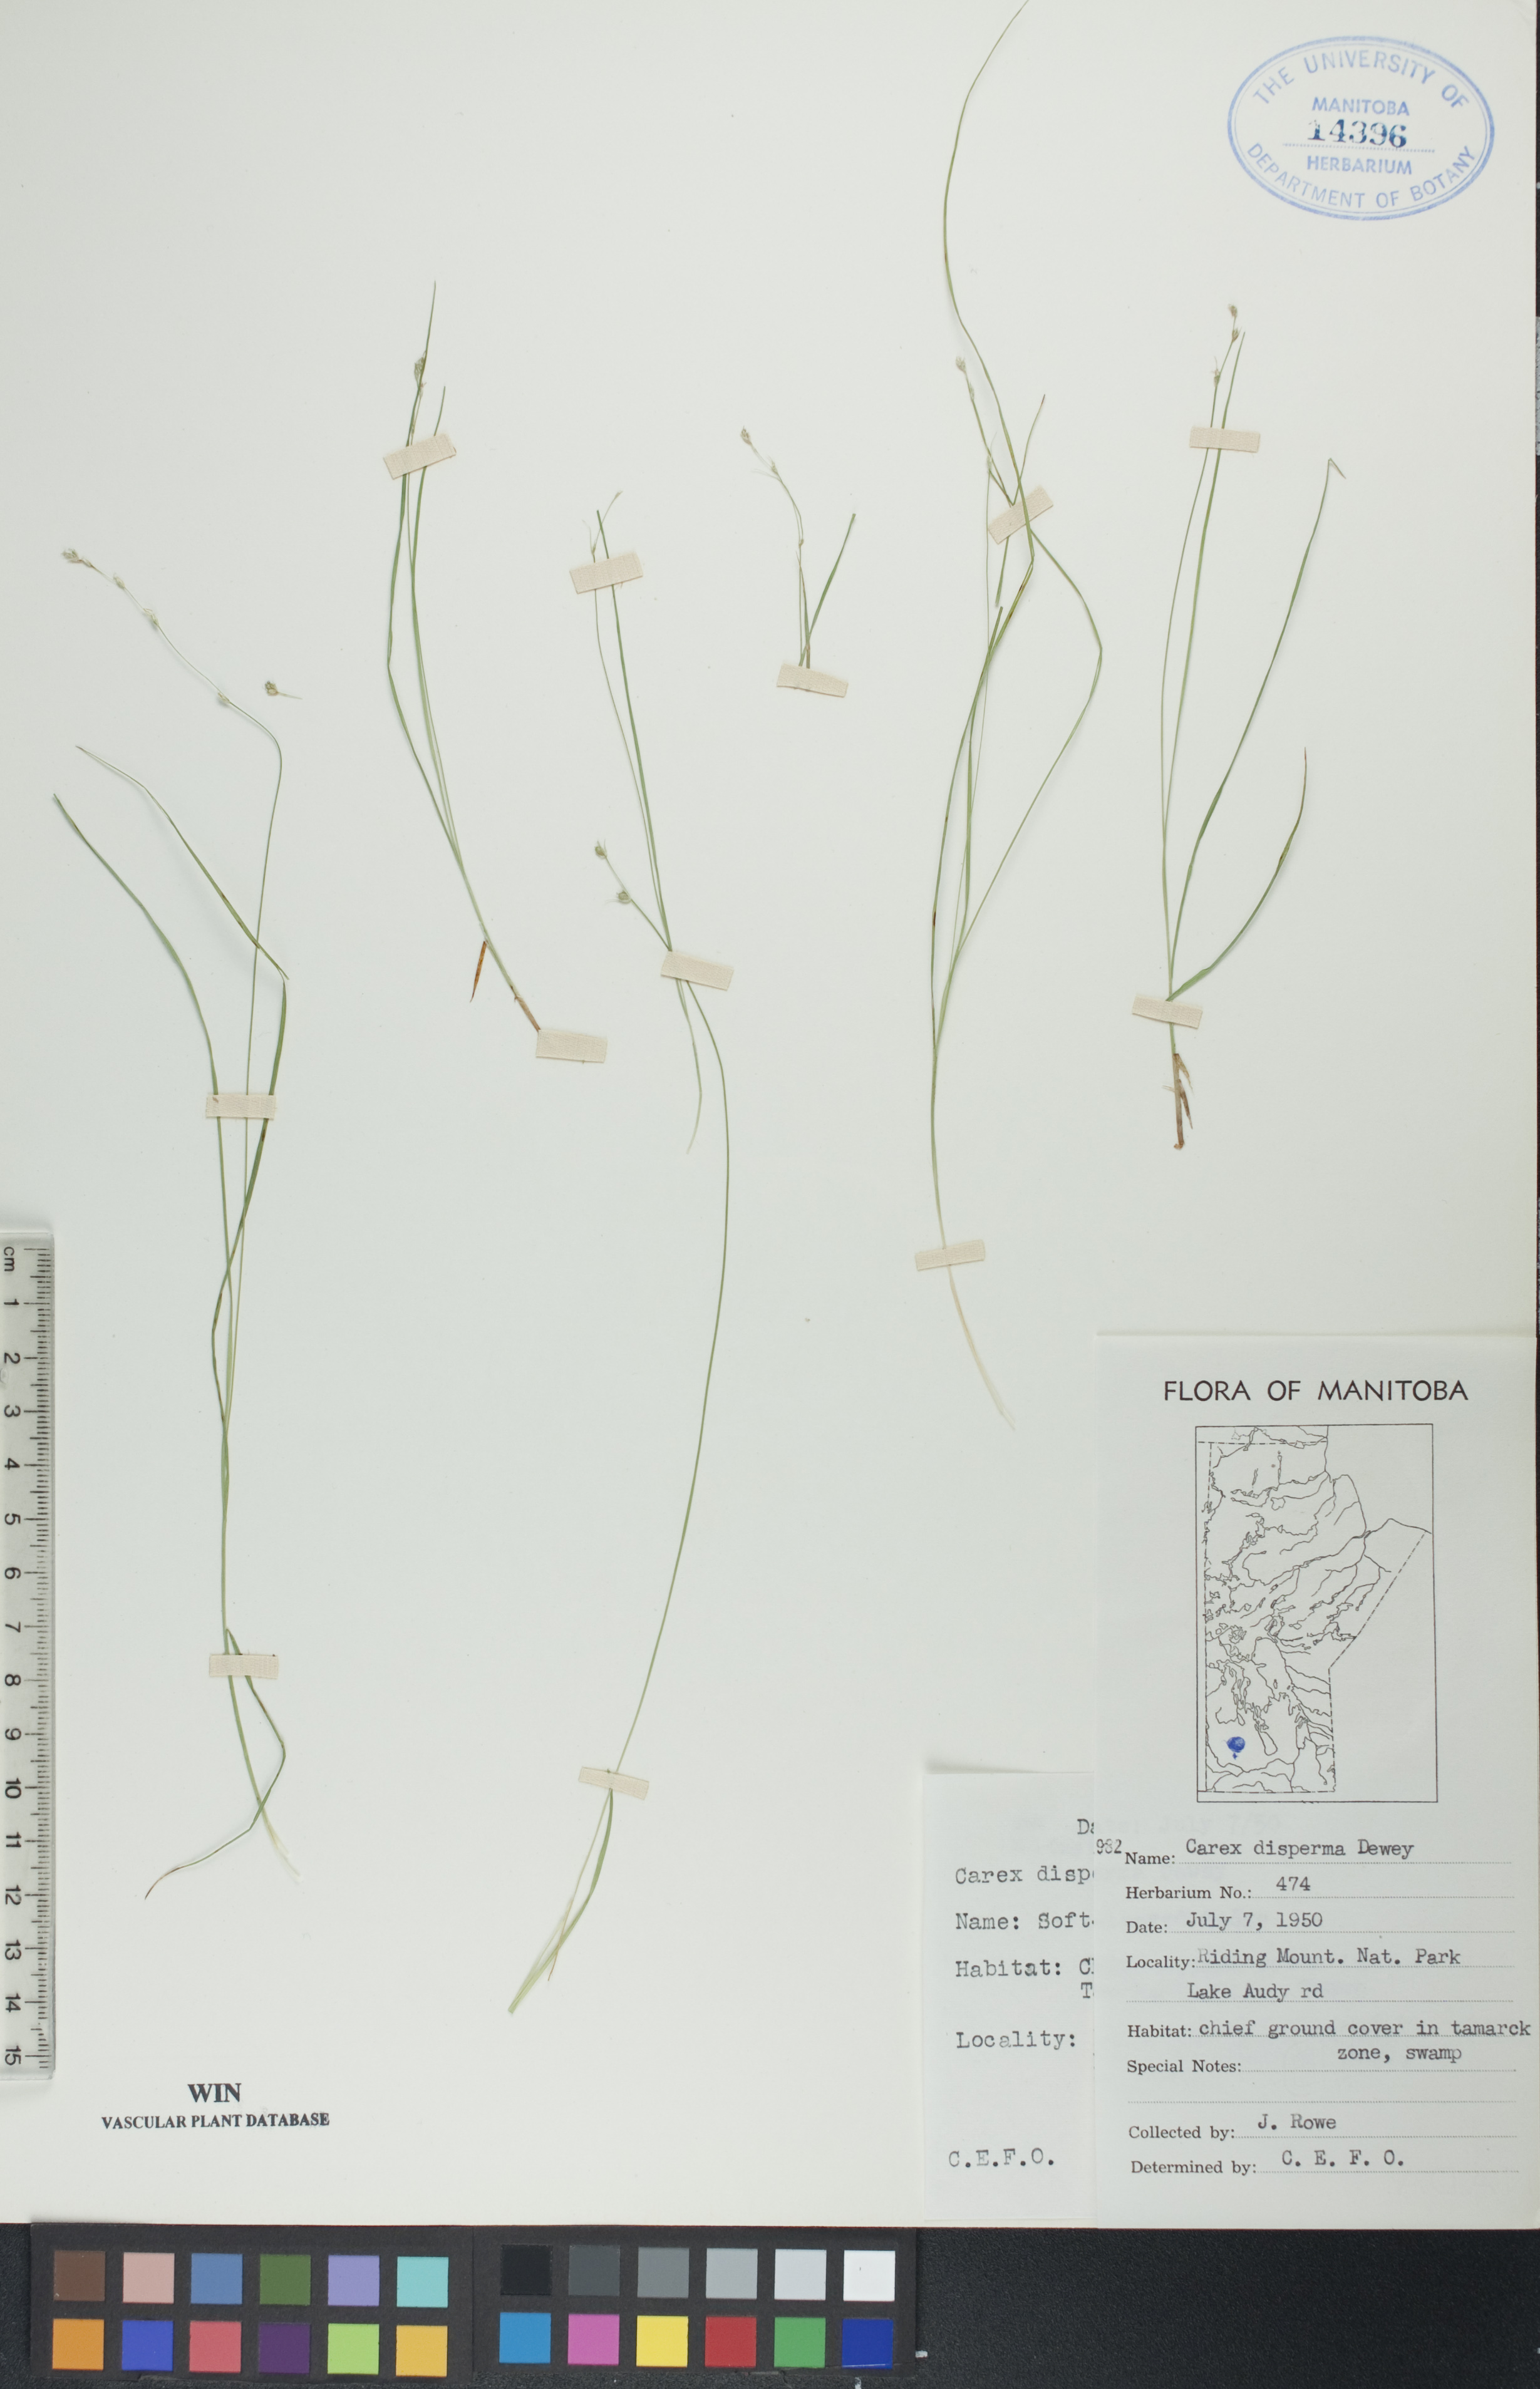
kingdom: Plantae
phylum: Tracheophyta
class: Liliopsida
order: Poales
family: Cyperaceae
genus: Carex
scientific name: Carex disperma
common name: Short-leaved sedge
